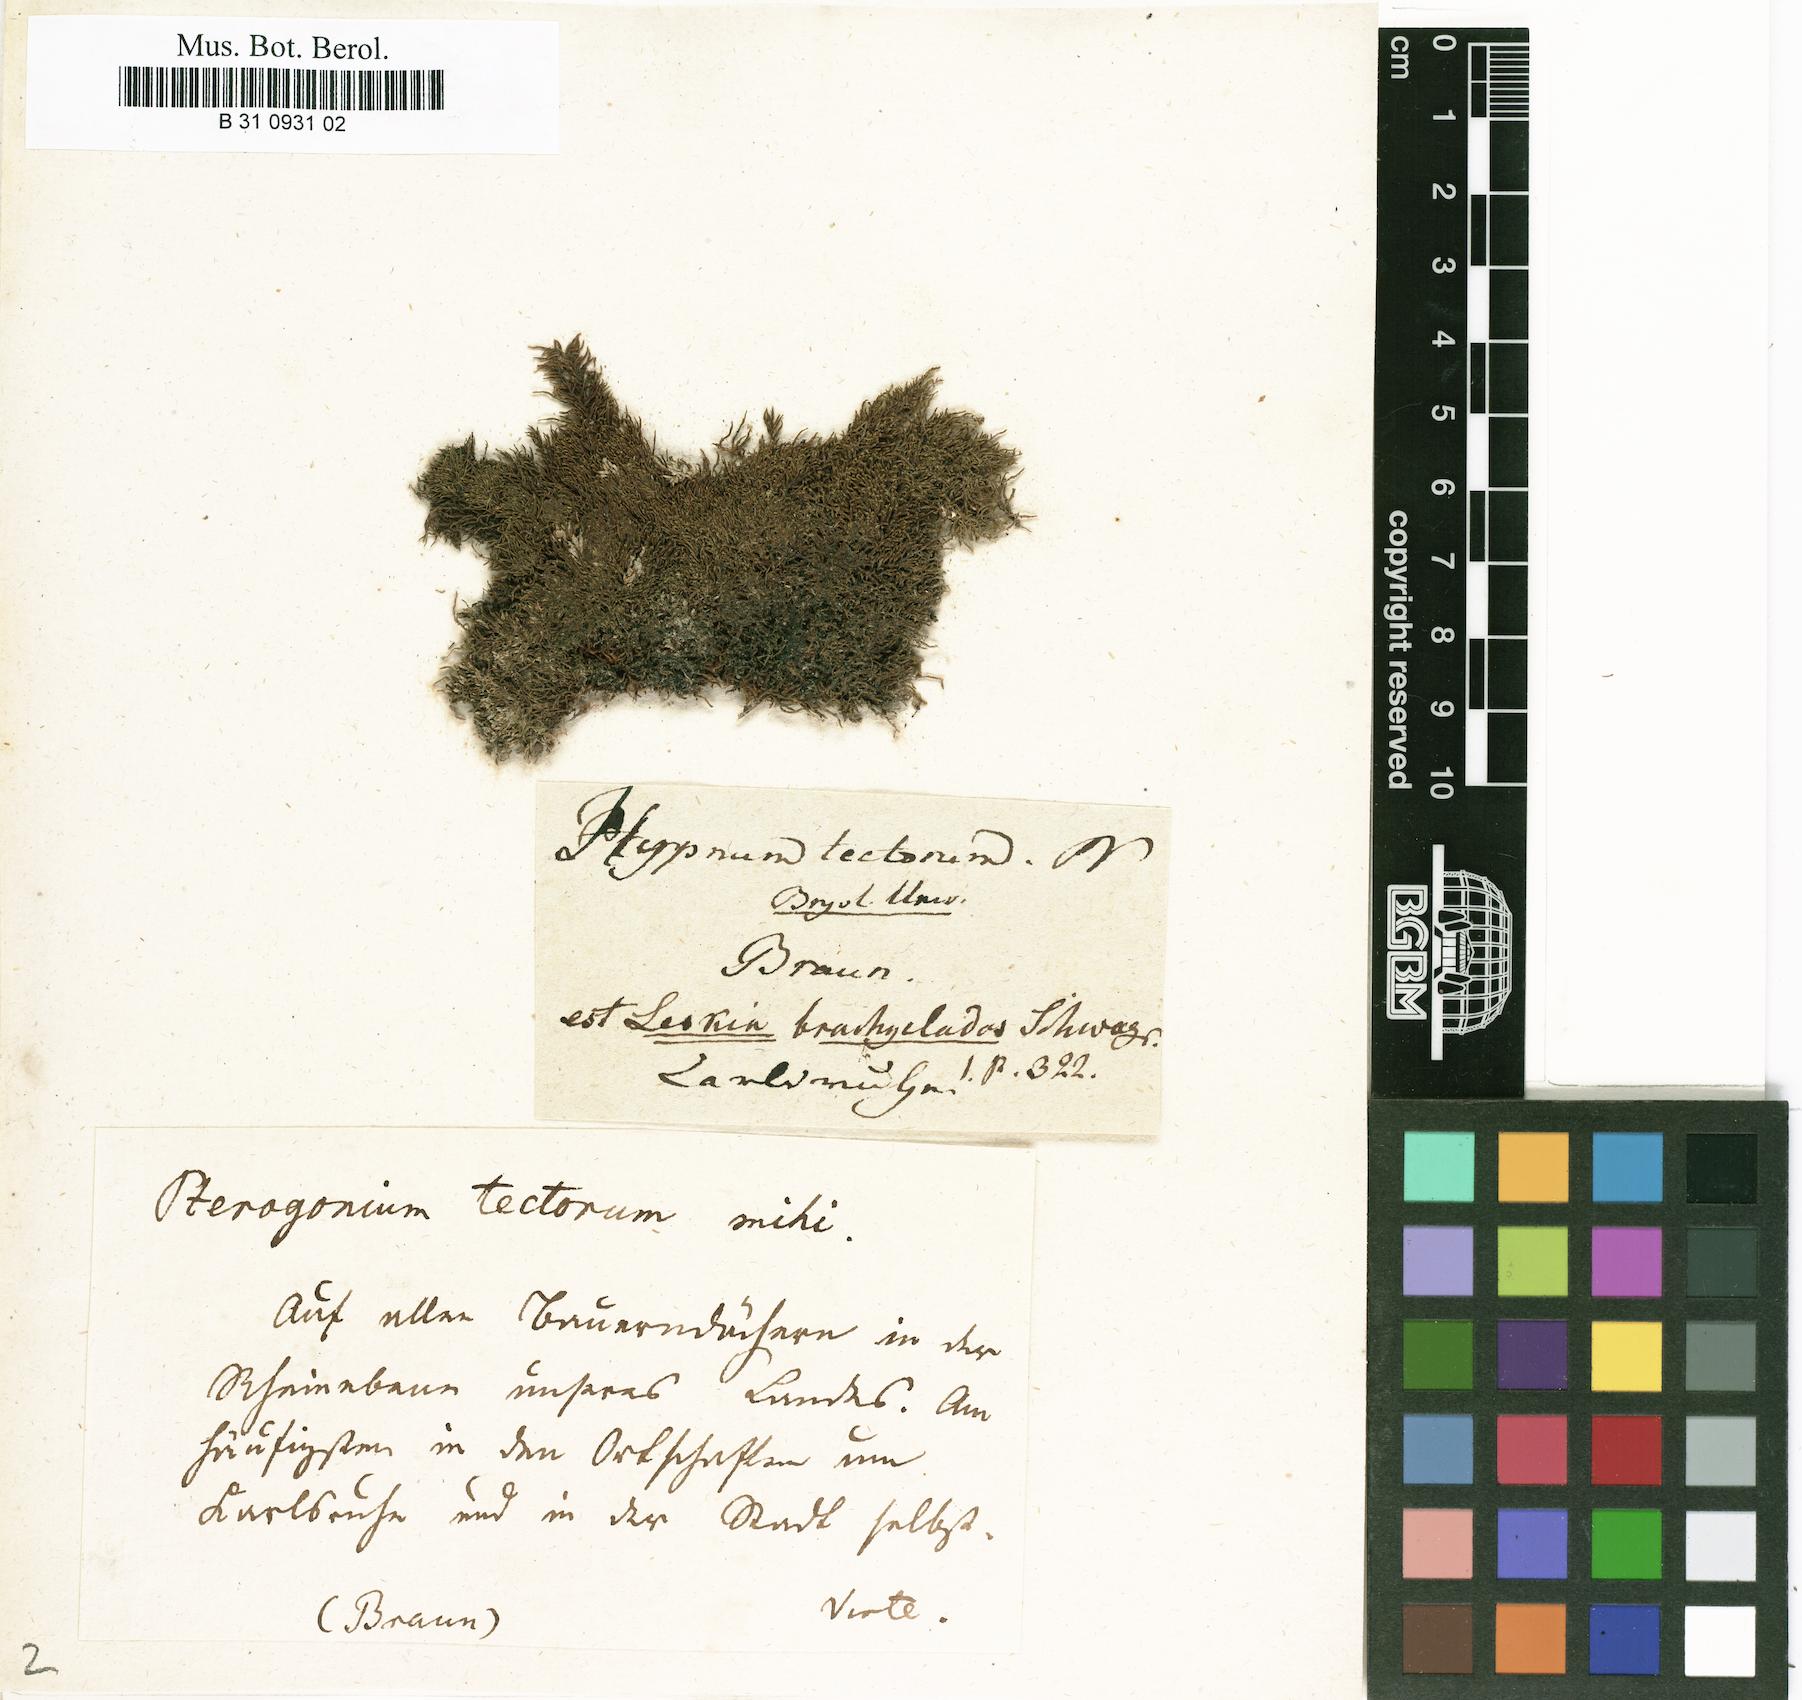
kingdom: Plantae
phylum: Bryophyta
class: Bryopsida
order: Hypnales
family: Pseudoleskeellaceae
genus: Pseudoleskeella
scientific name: Pseudoleskeella tectorum
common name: Rooftop leske's moss
